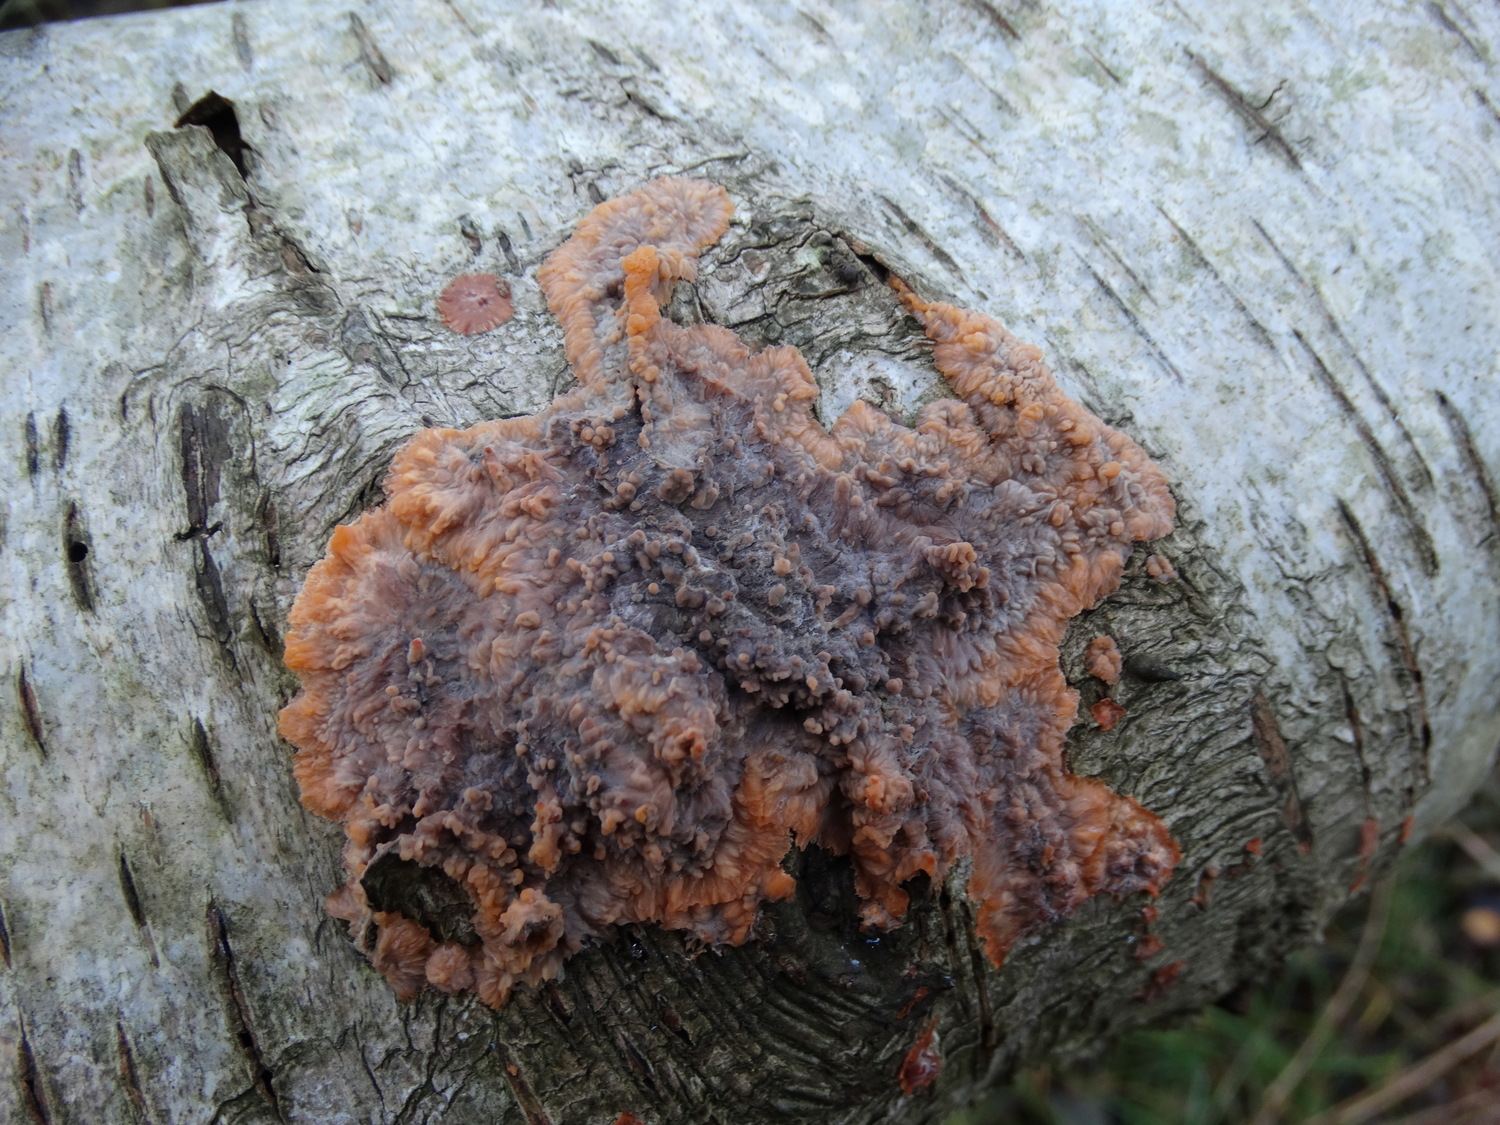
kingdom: Fungi
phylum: Basidiomycota
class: Agaricomycetes
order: Polyporales
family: Meruliaceae
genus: Phlebia
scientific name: Phlebia radiata
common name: stråle-åresvamp
